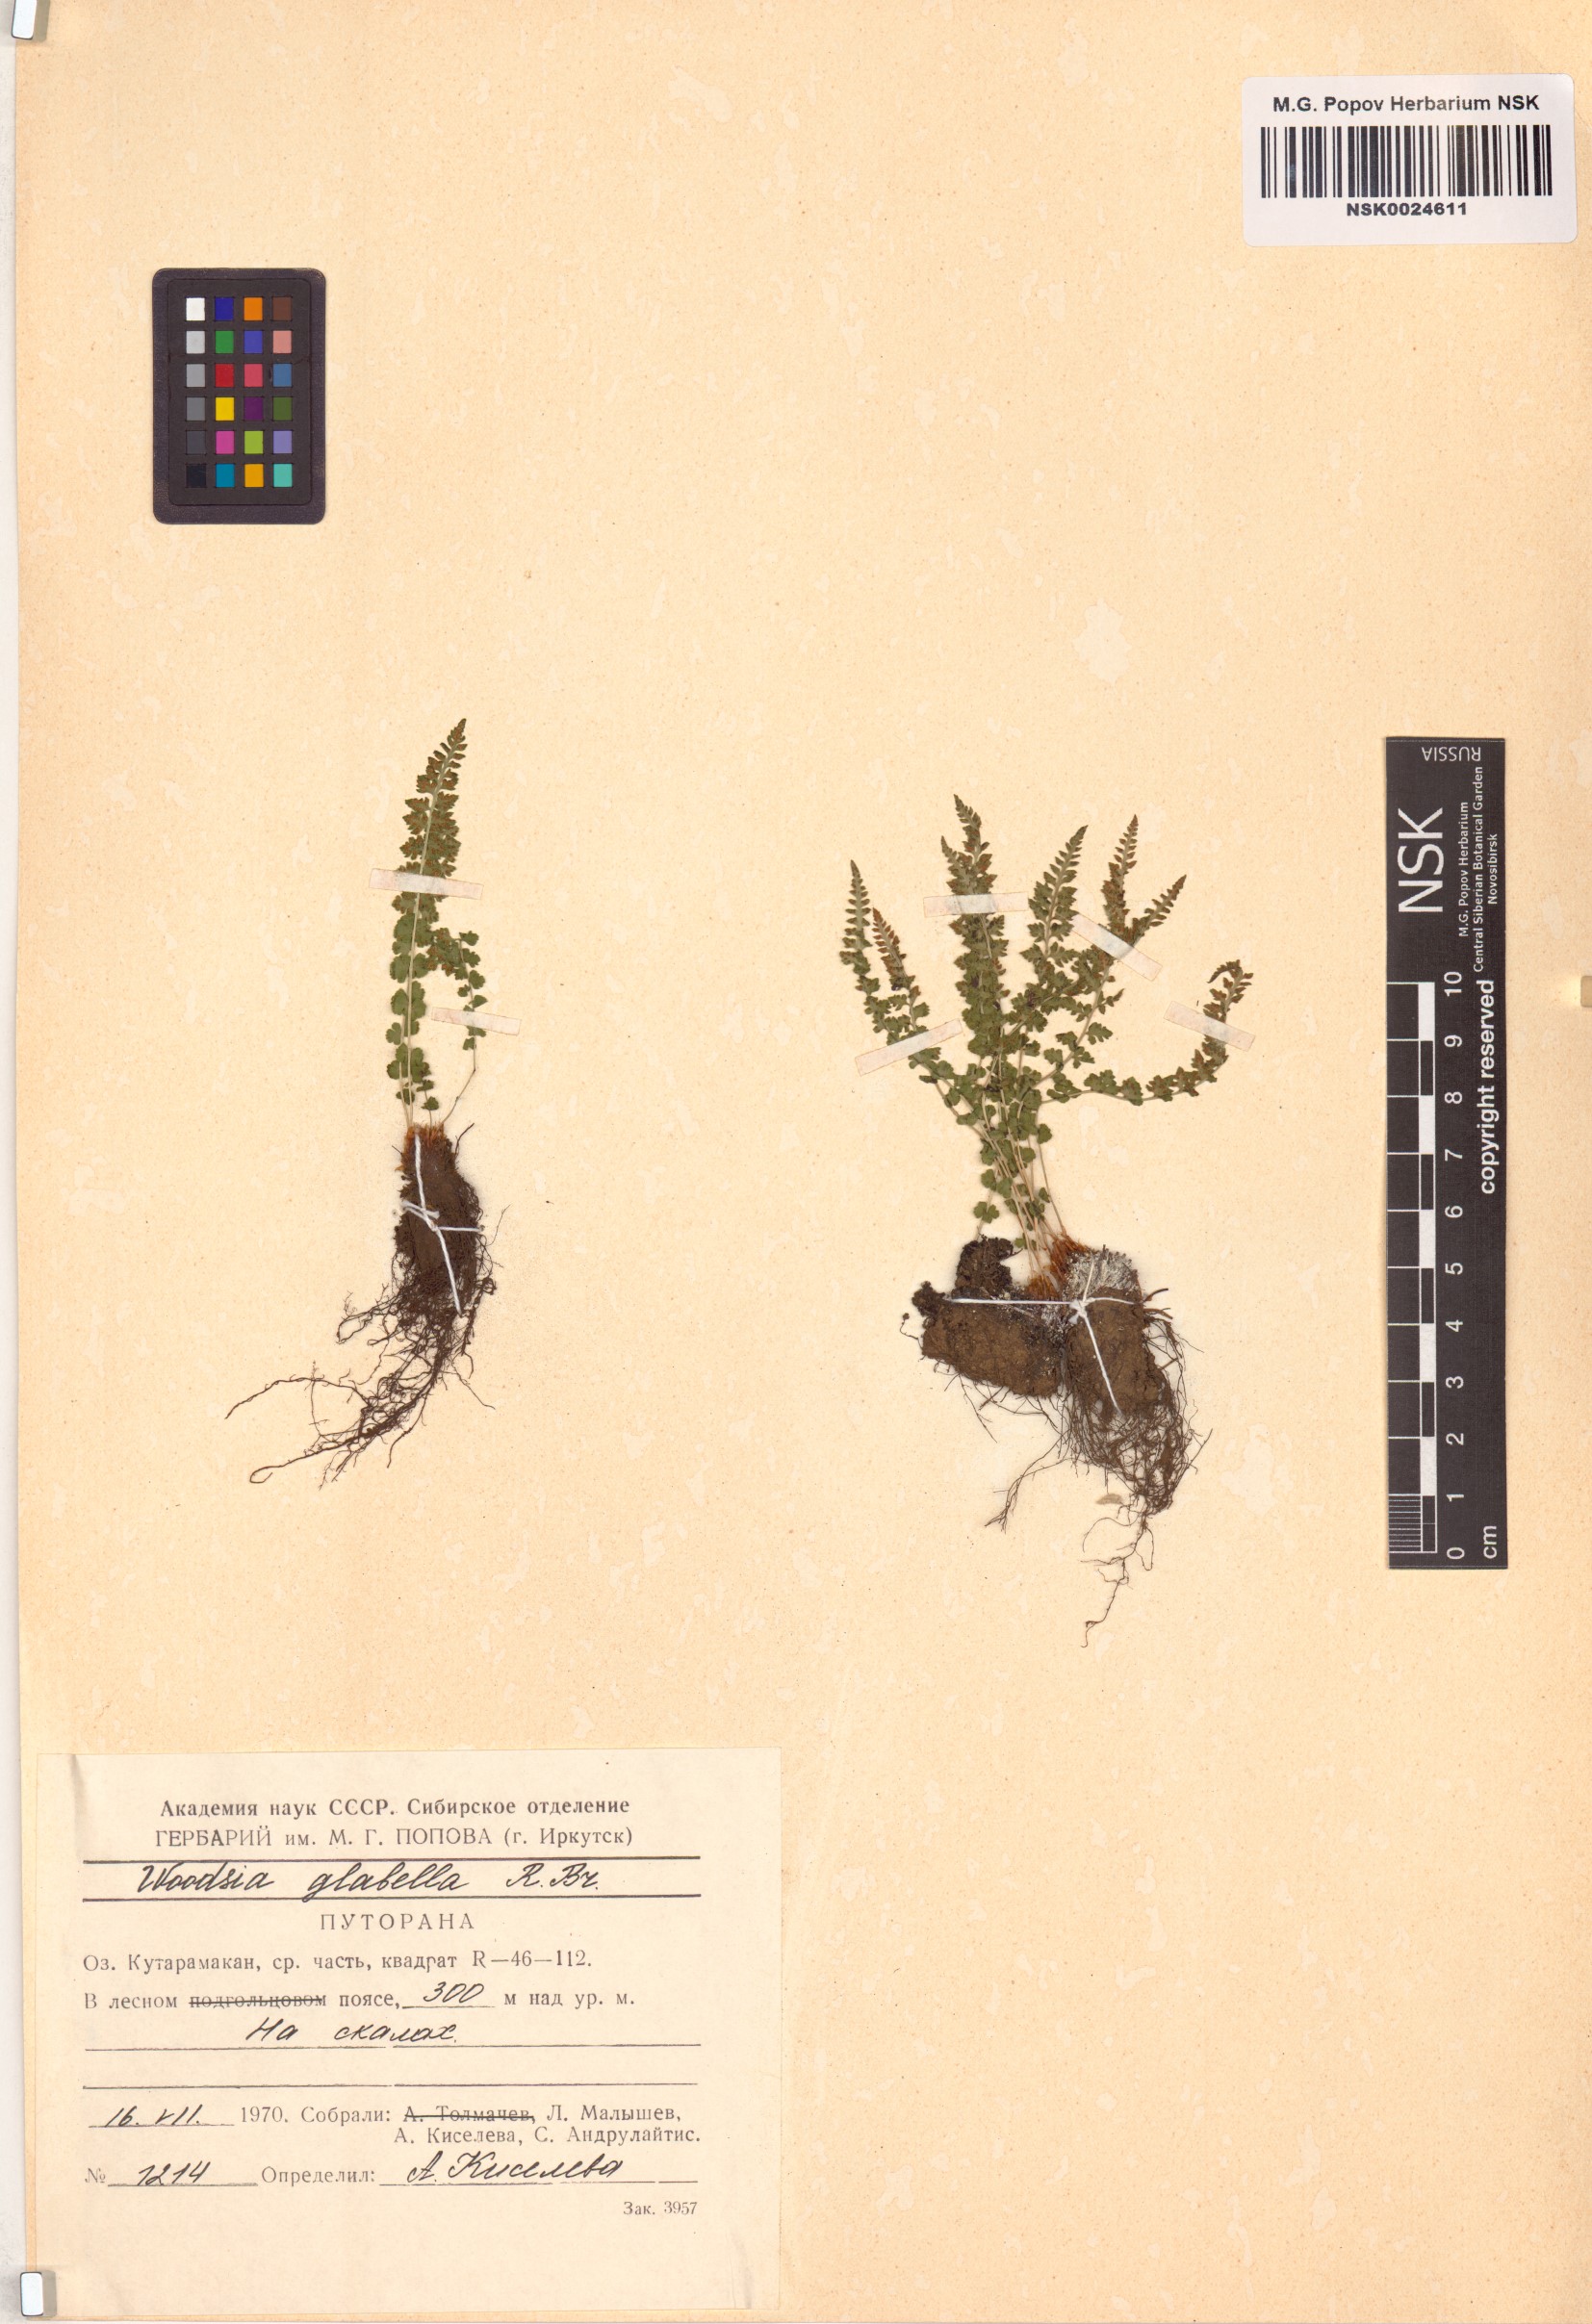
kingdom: Plantae
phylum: Tracheophyta
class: Polypodiopsida
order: Polypodiales
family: Woodsiaceae
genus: Woodsia
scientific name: Woodsia glabella
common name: Smooth woodsia
